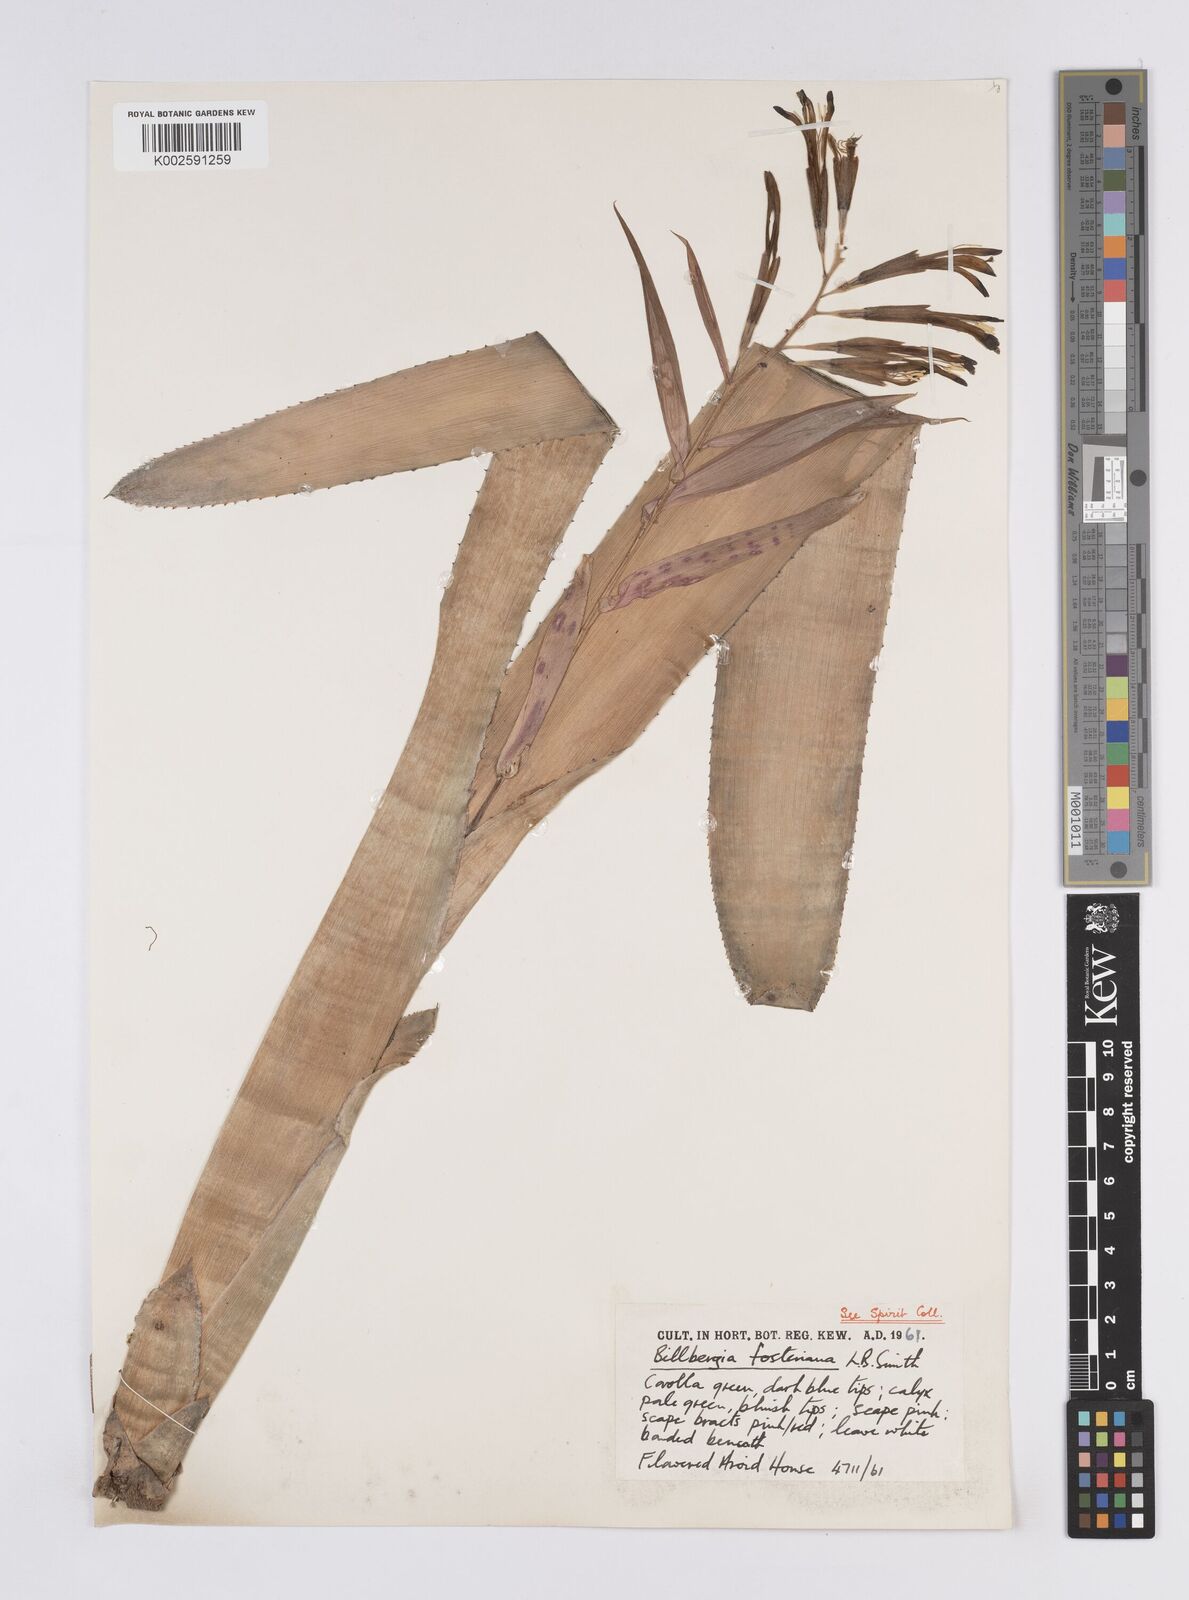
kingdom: Plantae
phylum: Tracheophyta
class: Liliopsida
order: Poales
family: Bromeliaceae
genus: Billbergia
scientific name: Billbergia saundersii
